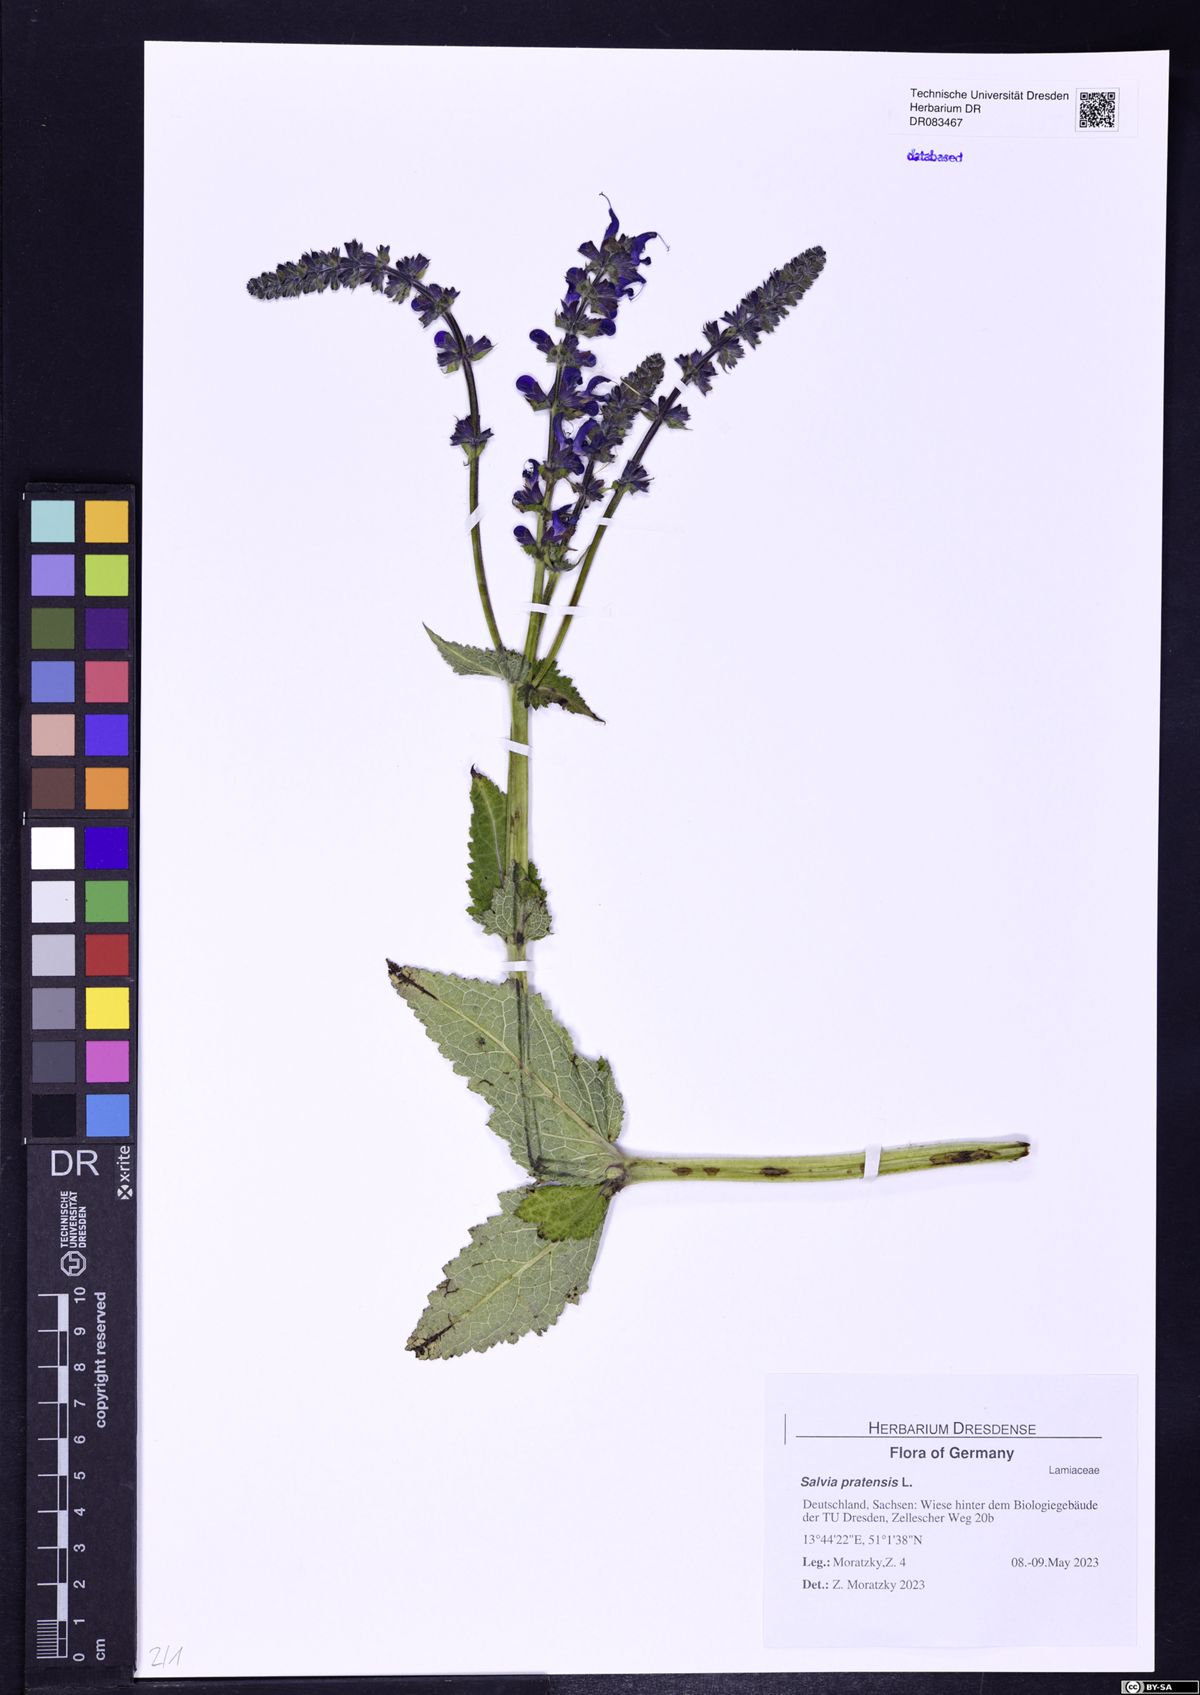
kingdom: Plantae
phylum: Tracheophyta
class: Magnoliopsida
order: Lamiales
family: Lamiaceae
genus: Salvia
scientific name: Salvia pratensis
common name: Meadow sage
